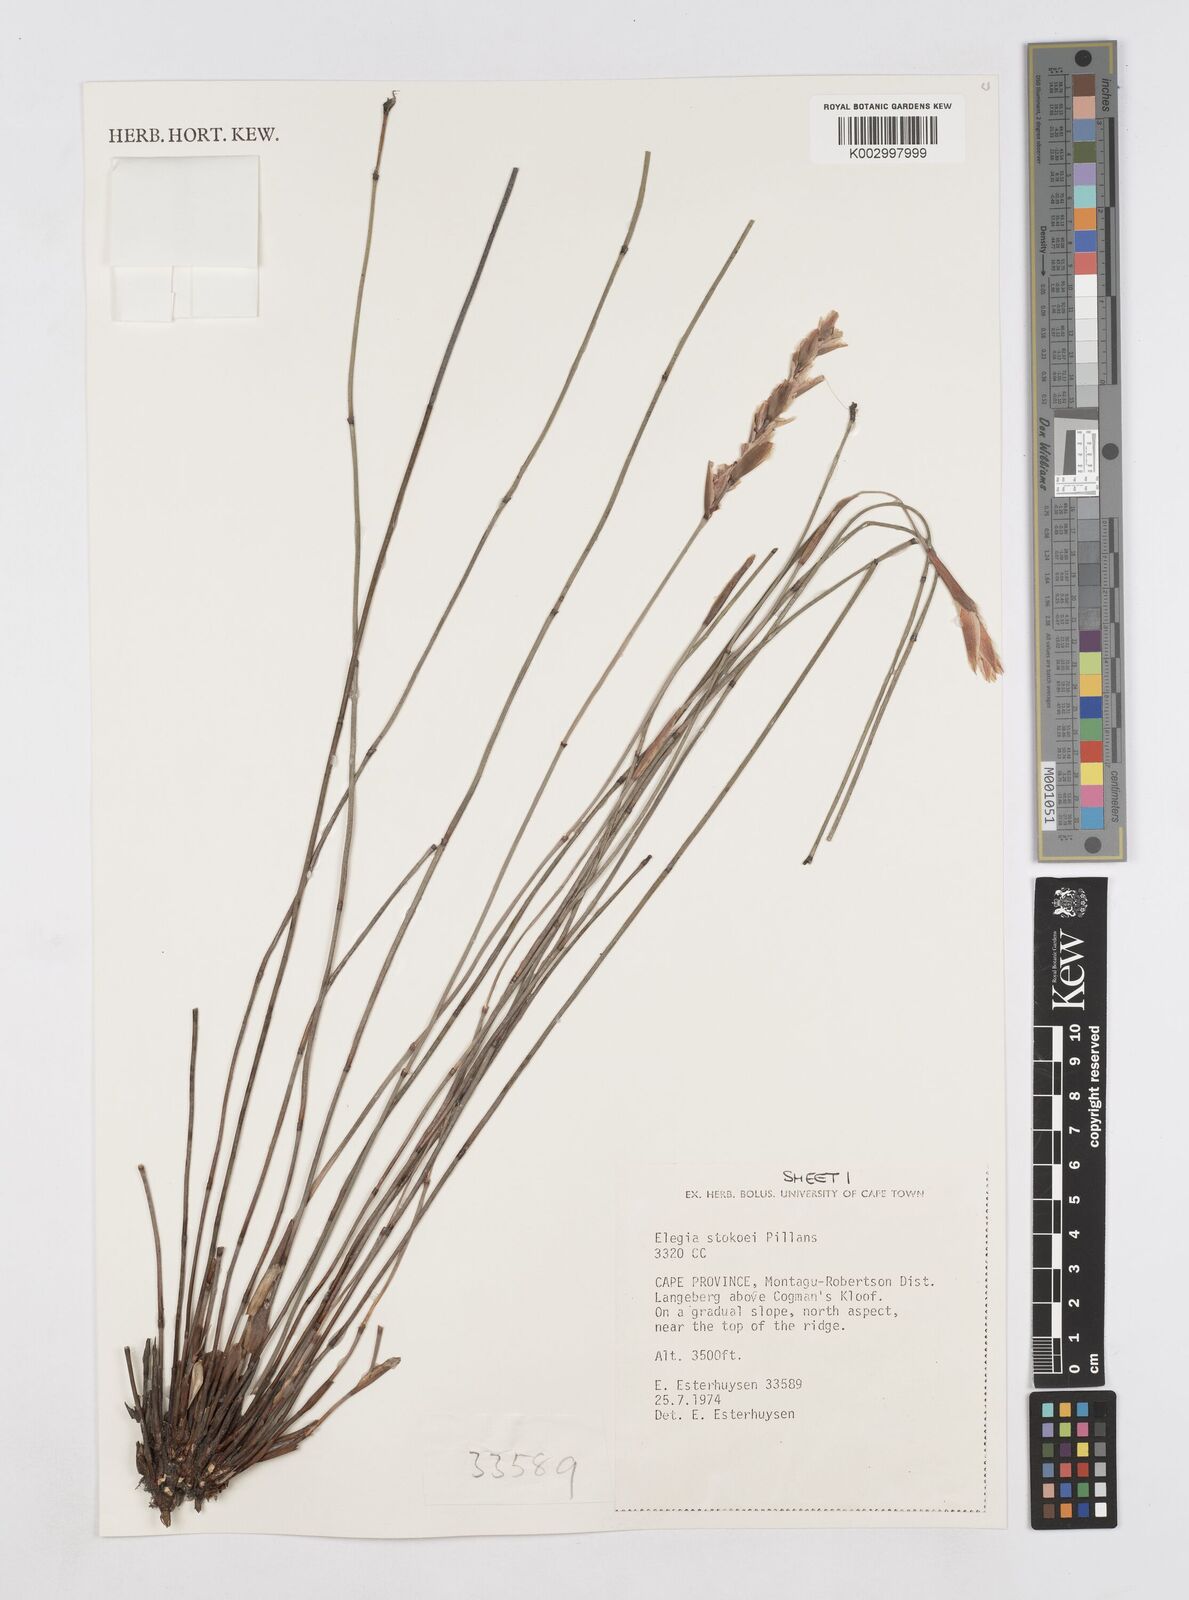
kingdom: Plantae
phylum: Tracheophyta
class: Liliopsida
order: Poales
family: Restionaceae
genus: Elegia
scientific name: Elegia stokoei
